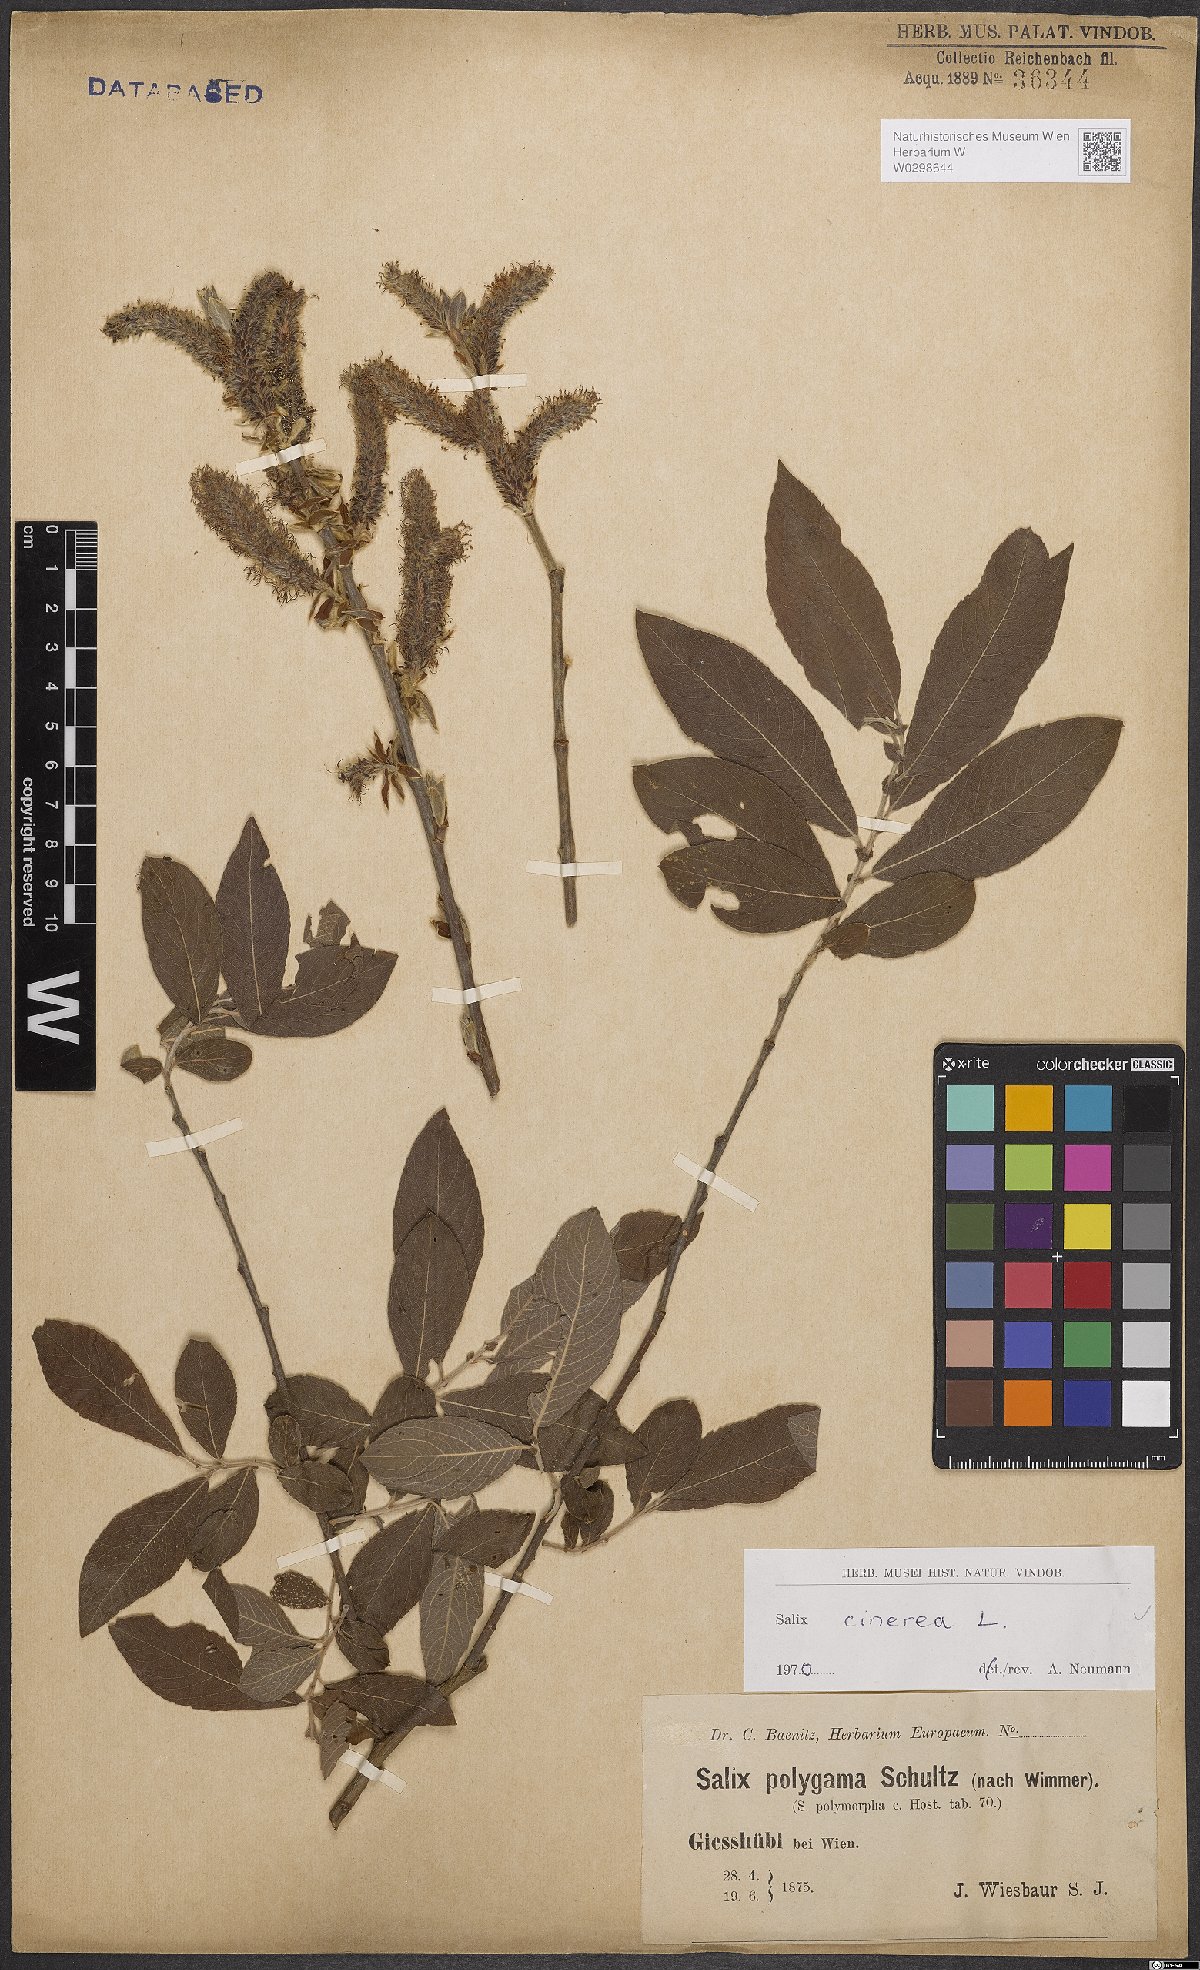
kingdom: Plantae
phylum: Tracheophyta
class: Magnoliopsida
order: Malpighiales
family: Salicaceae
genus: Salix
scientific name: Salix cinerea
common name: Common sallow
